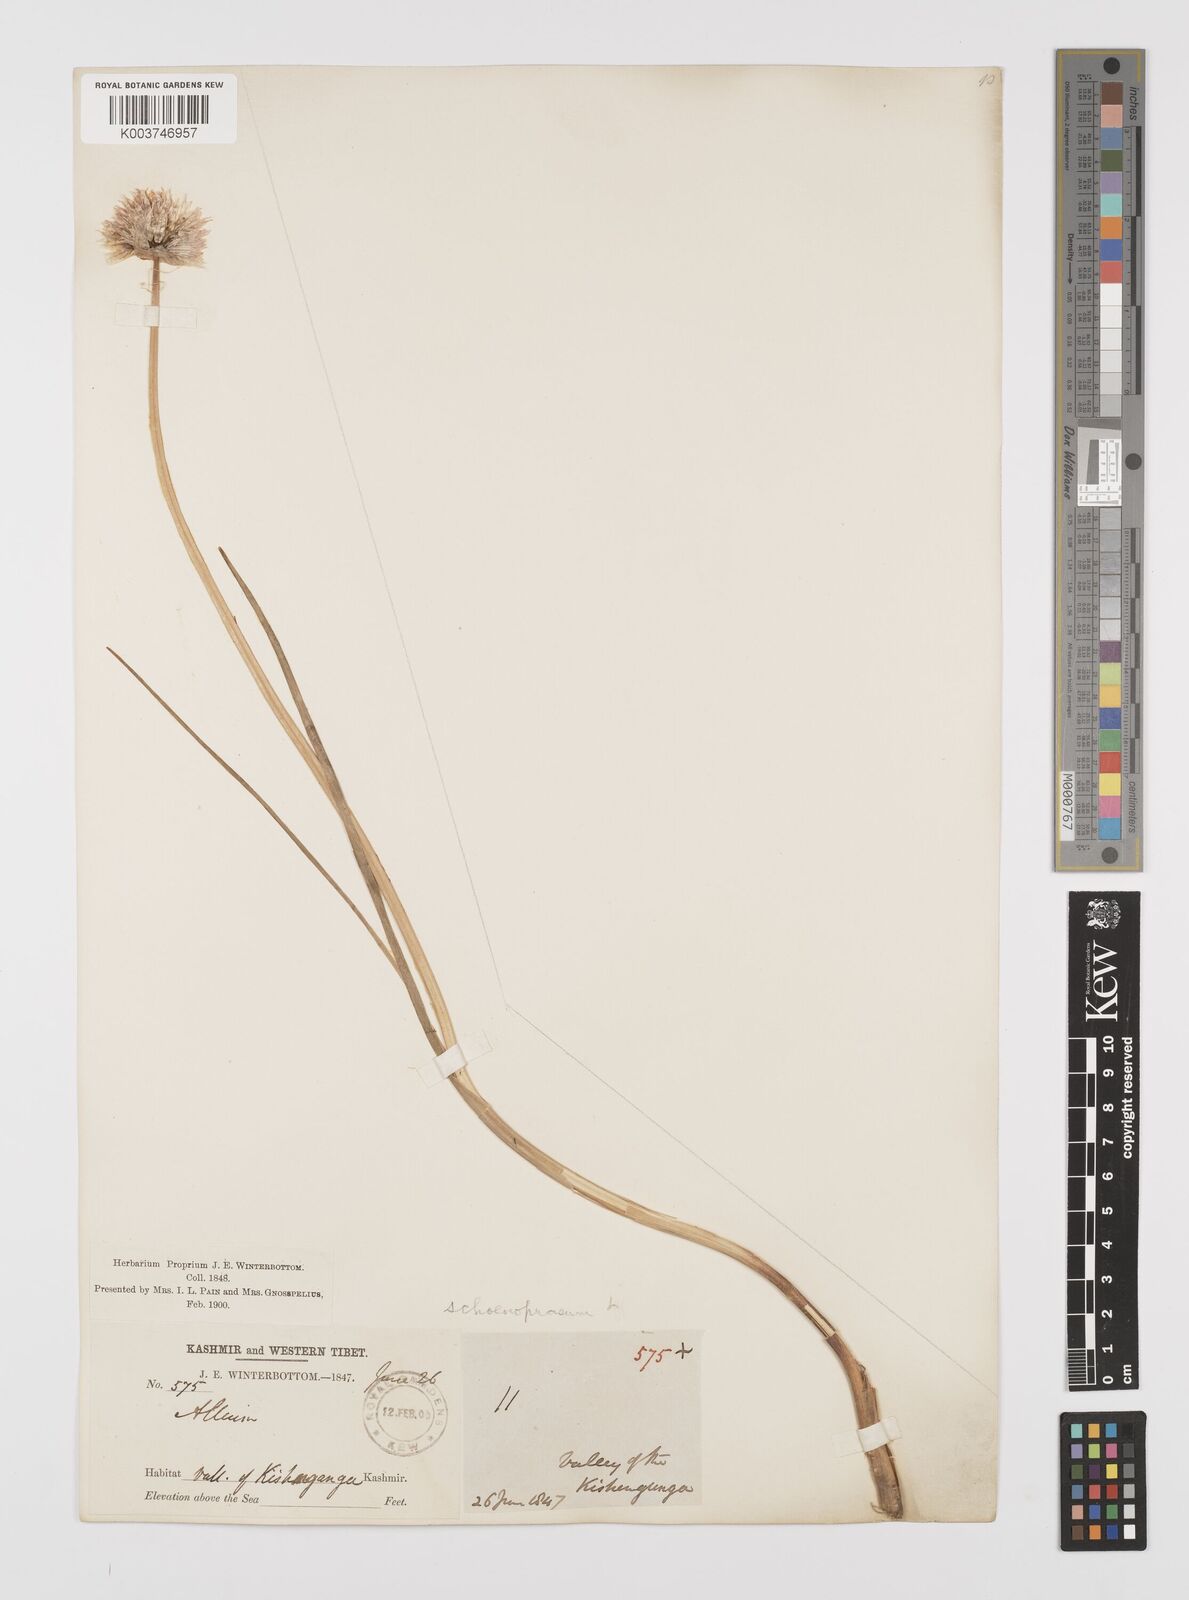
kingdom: Plantae
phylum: Tracheophyta
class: Liliopsida
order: Asparagales
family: Amaryllidaceae
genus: Allium
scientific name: Allium
